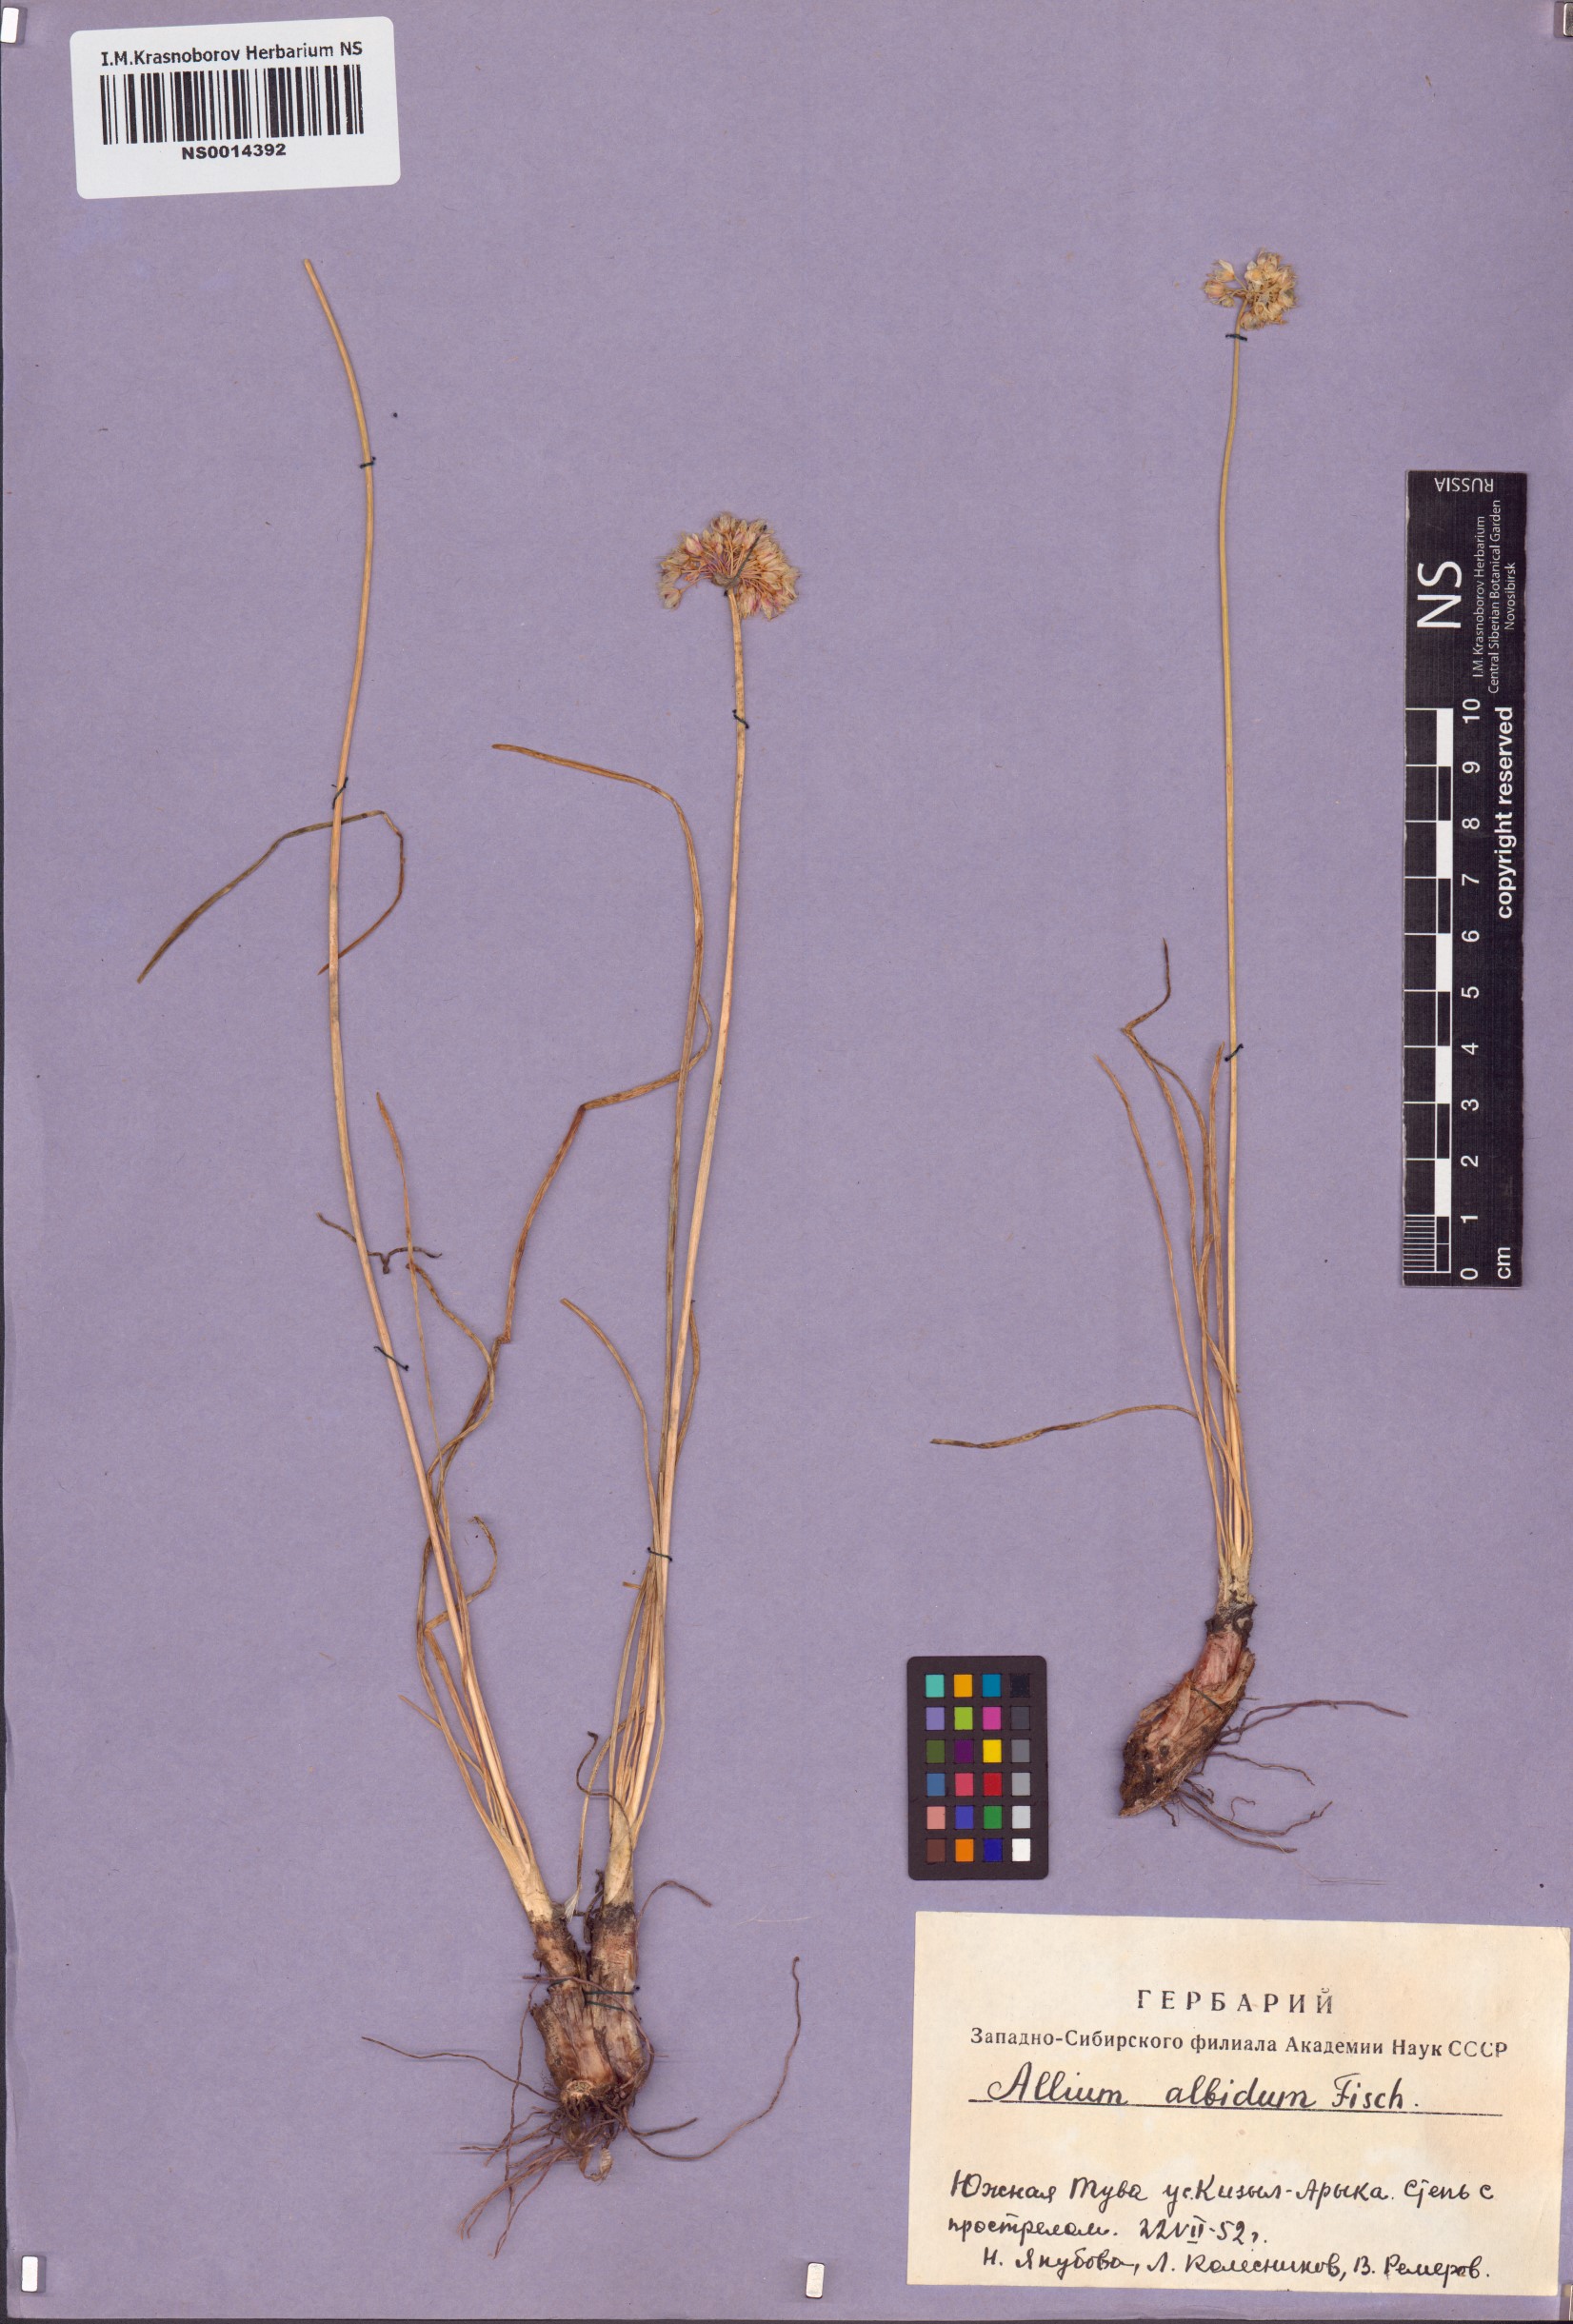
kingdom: Plantae
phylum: Tracheophyta
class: Liliopsida
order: Asparagales
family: Amaryllidaceae
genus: Allium
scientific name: Allium denudatum
